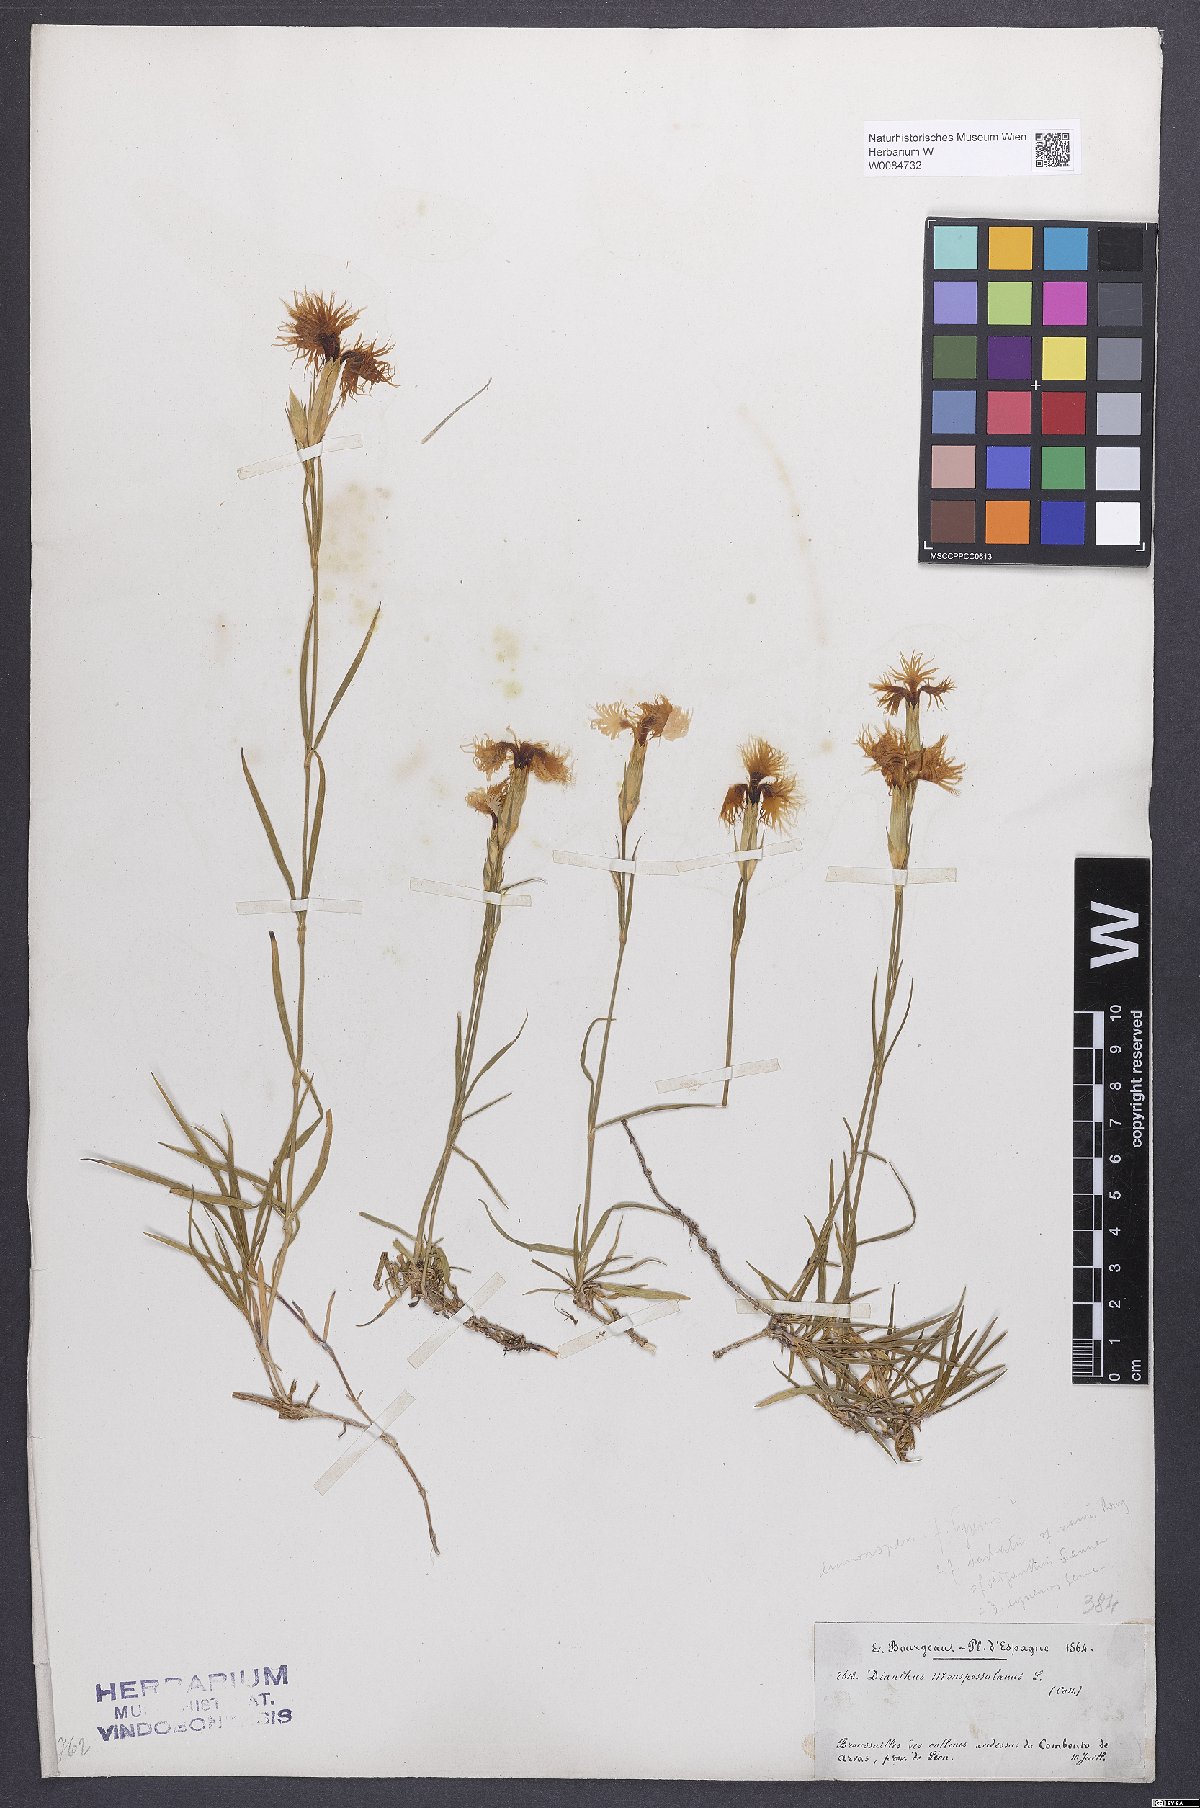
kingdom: Plantae
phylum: Tracheophyta
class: Magnoliopsida
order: Caryophyllales
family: Caryophyllaceae
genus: Dianthus
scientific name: Dianthus hyssopifolius
